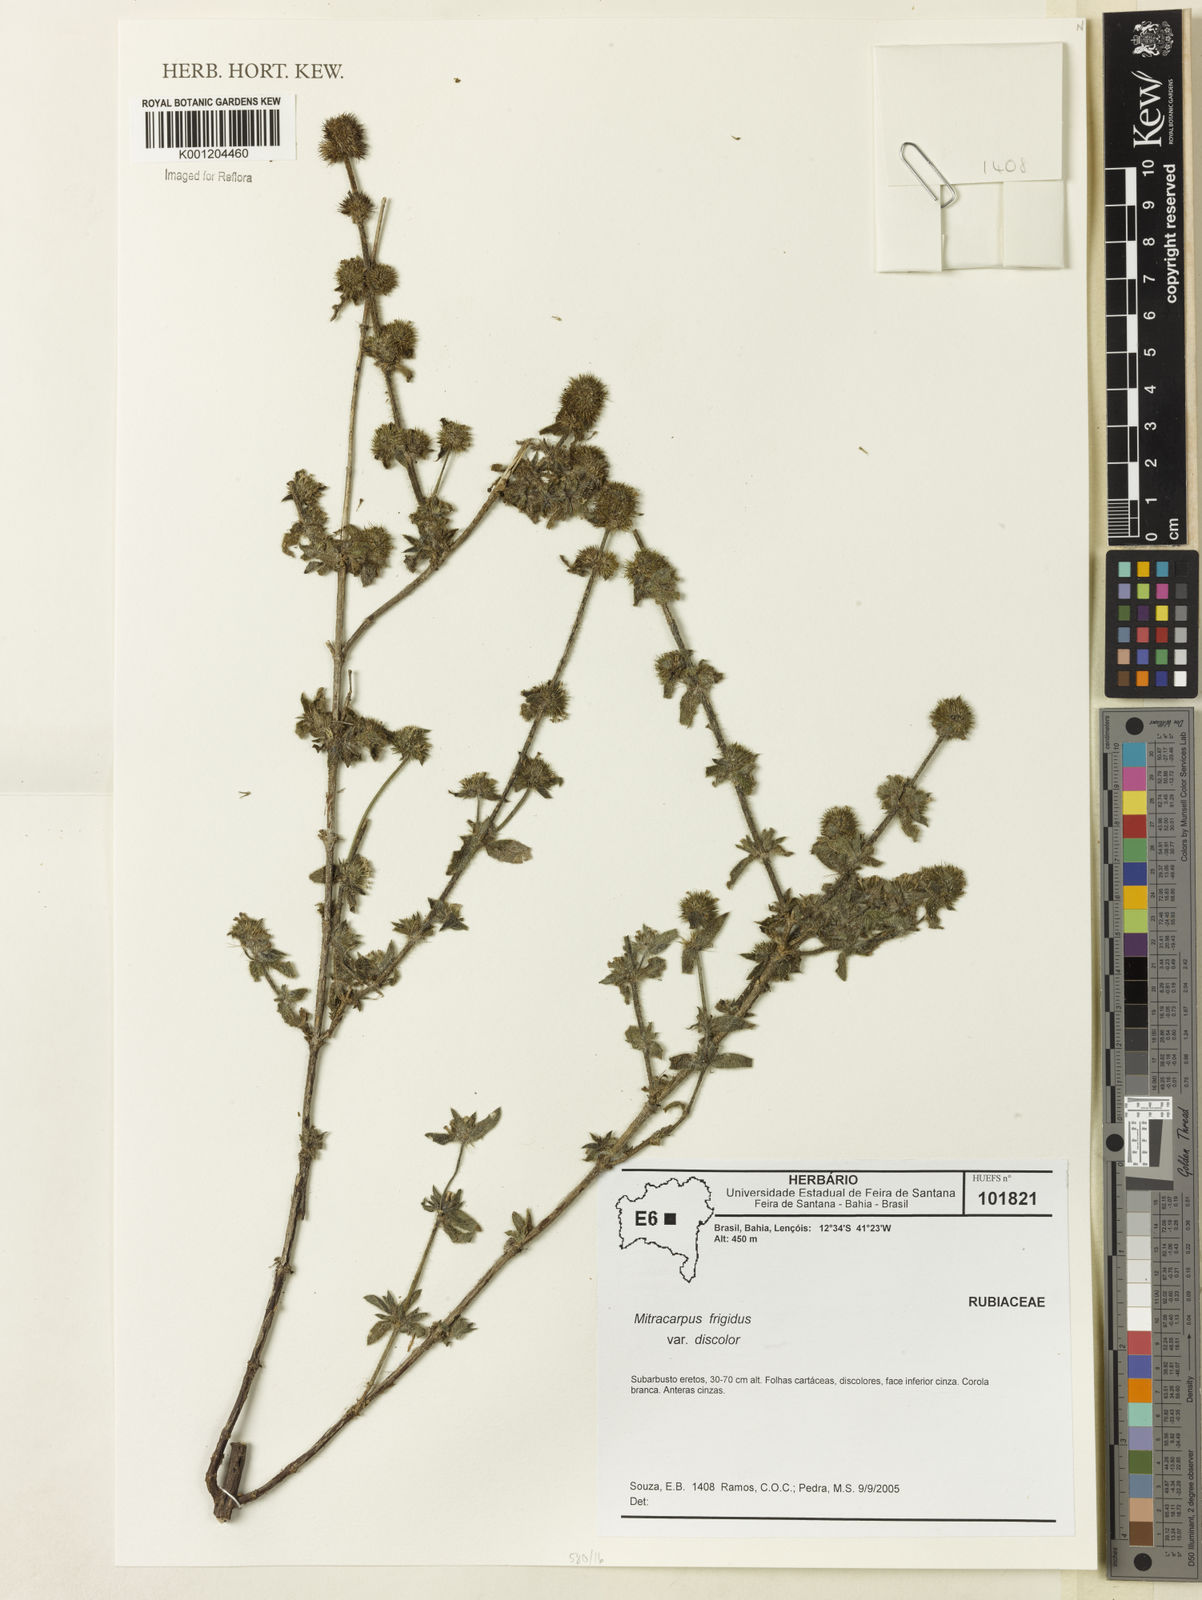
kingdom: Plantae
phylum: Tracheophyta
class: Magnoliopsida
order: Gentianales
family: Rubiaceae
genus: Mitracarpus
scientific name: Mitracarpus frigidus
